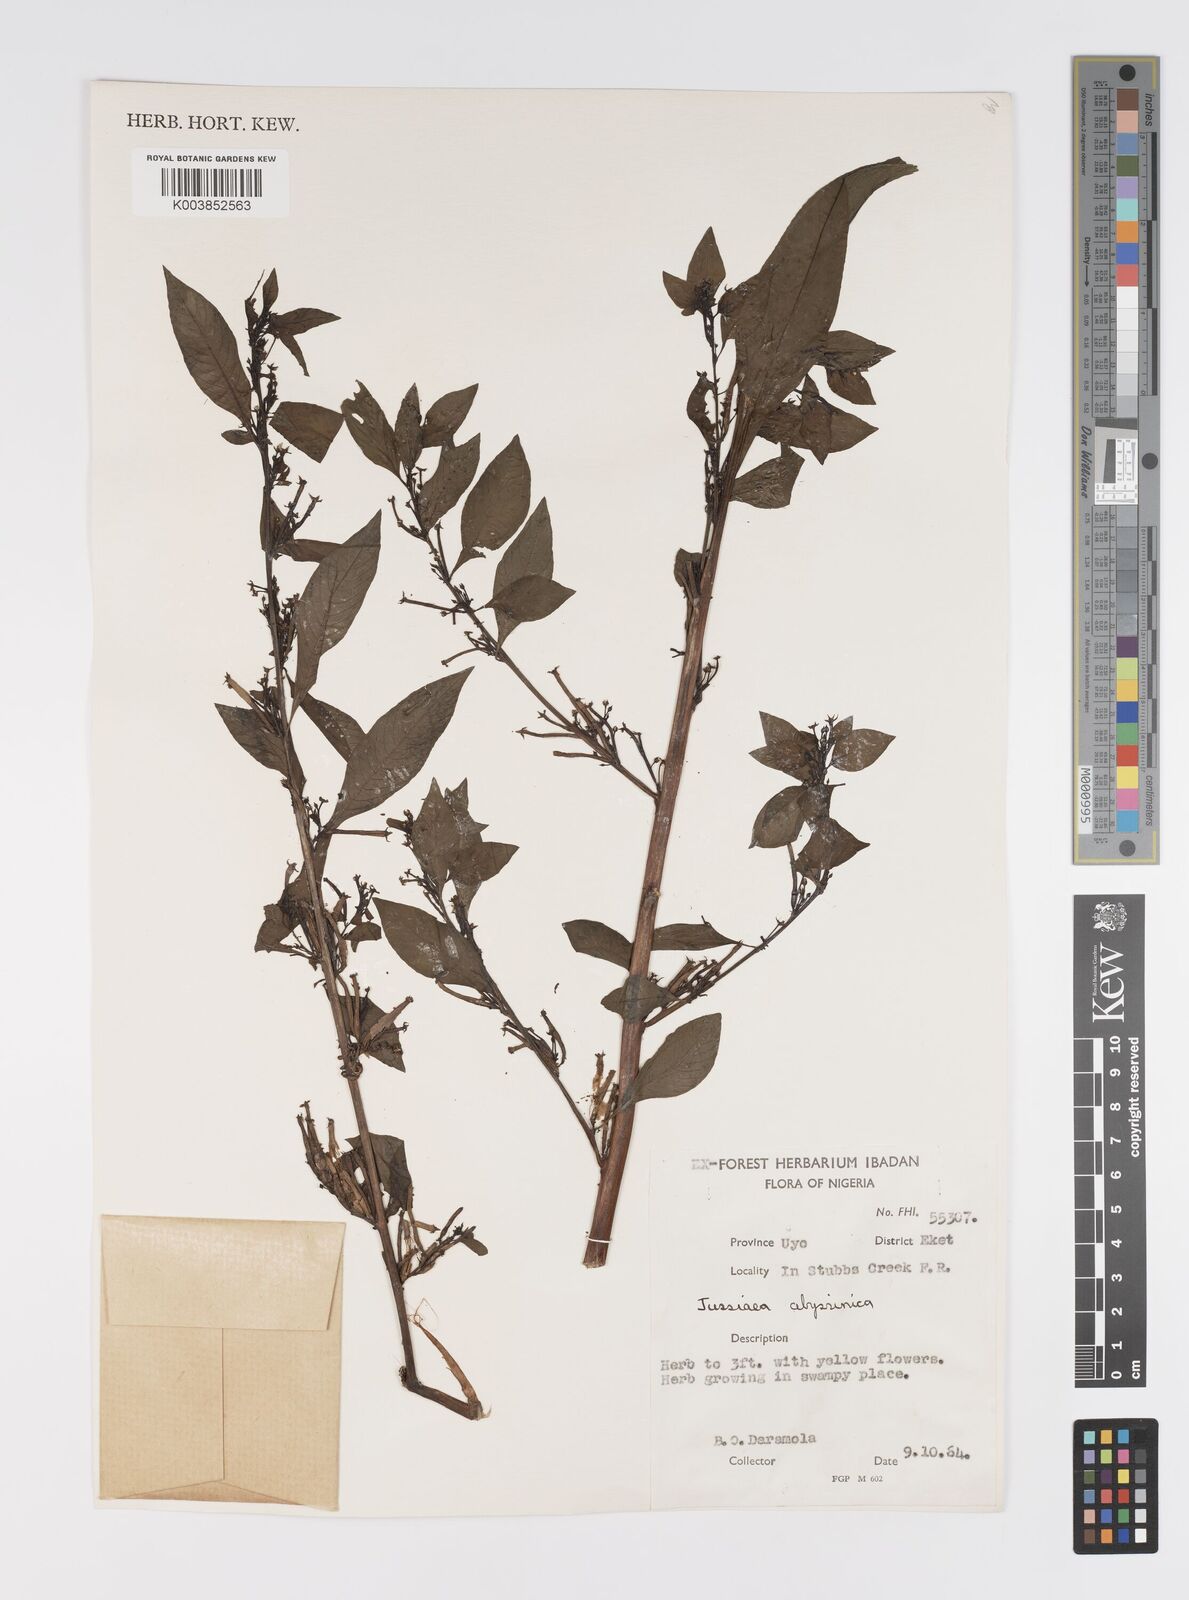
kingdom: Plantae
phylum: Tracheophyta
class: Magnoliopsida
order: Myrtales
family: Onagraceae
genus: Ludwigia
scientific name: Ludwigia abyssinica
